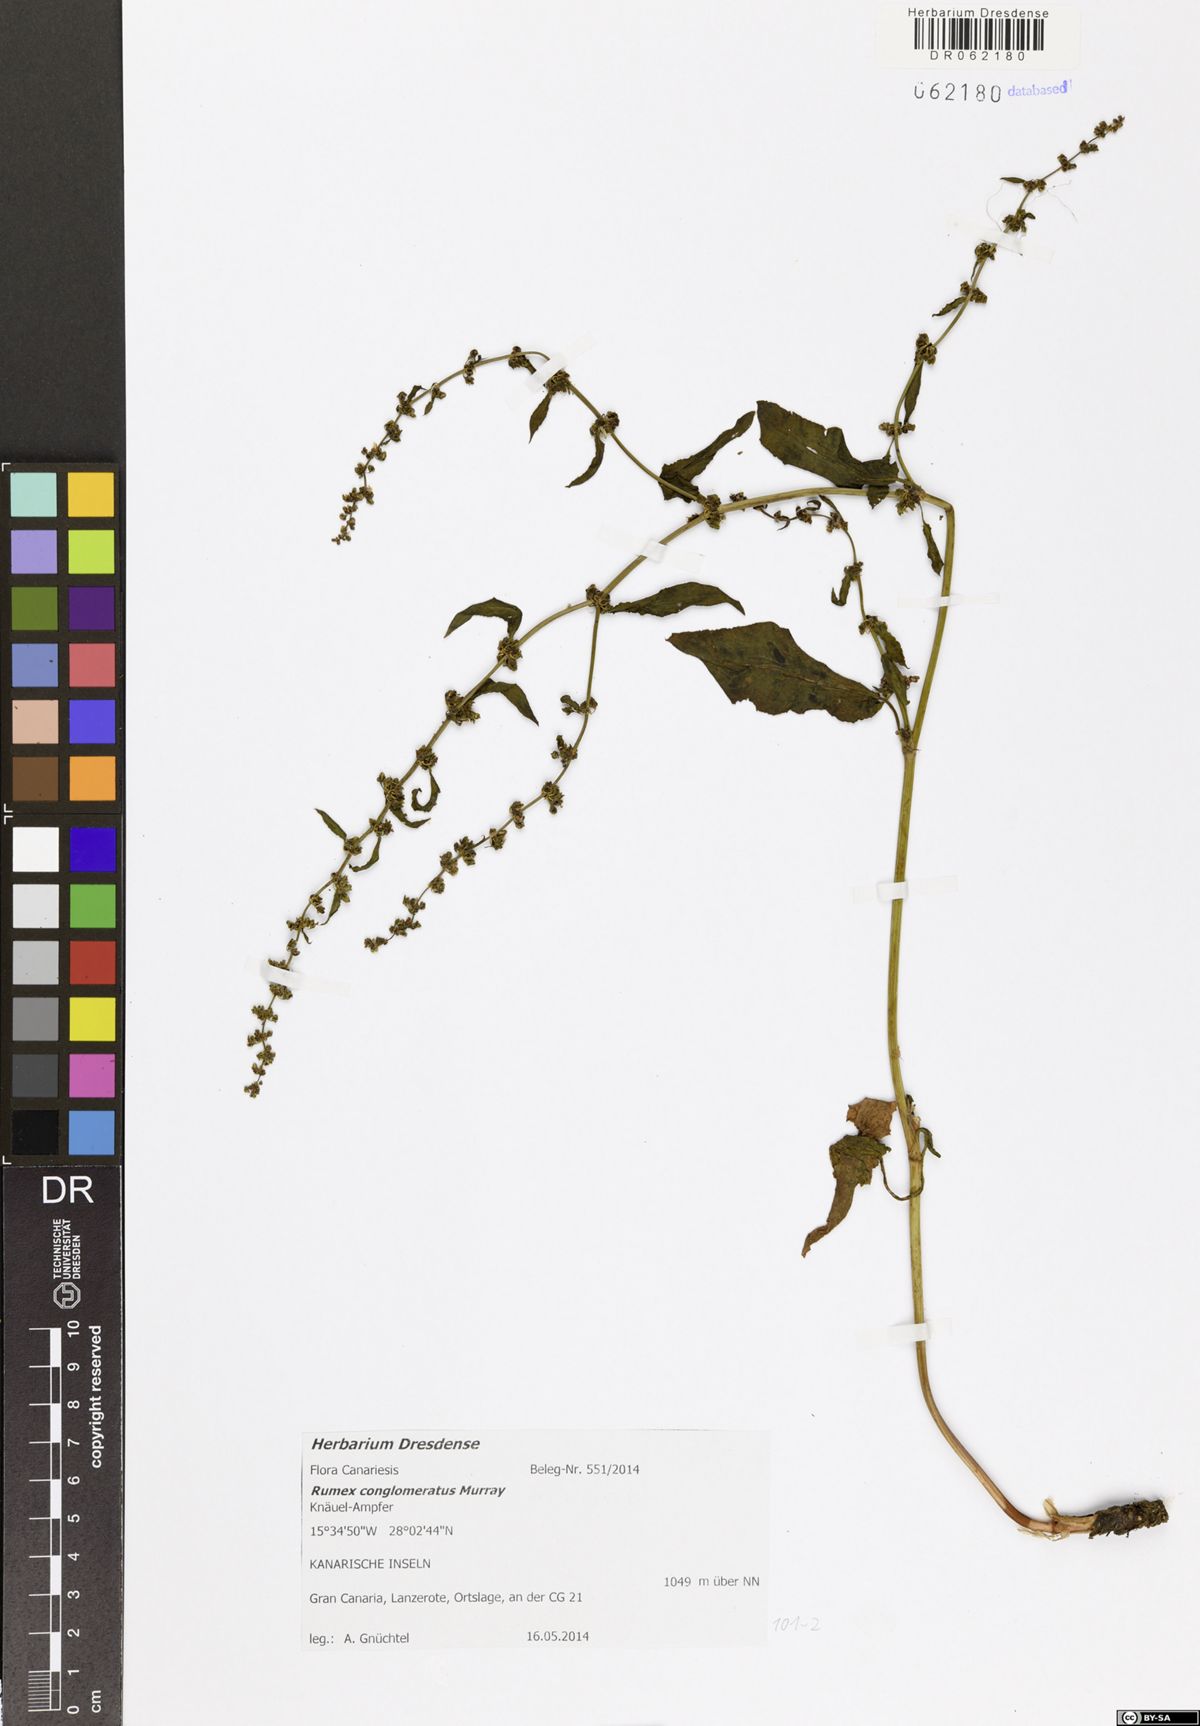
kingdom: Plantae
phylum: Tracheophyta
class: Magnoliopsida
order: Caryophyllales
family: Polygonaceae
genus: Rumex
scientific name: Rumex conglomeratus
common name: Clustered dock
